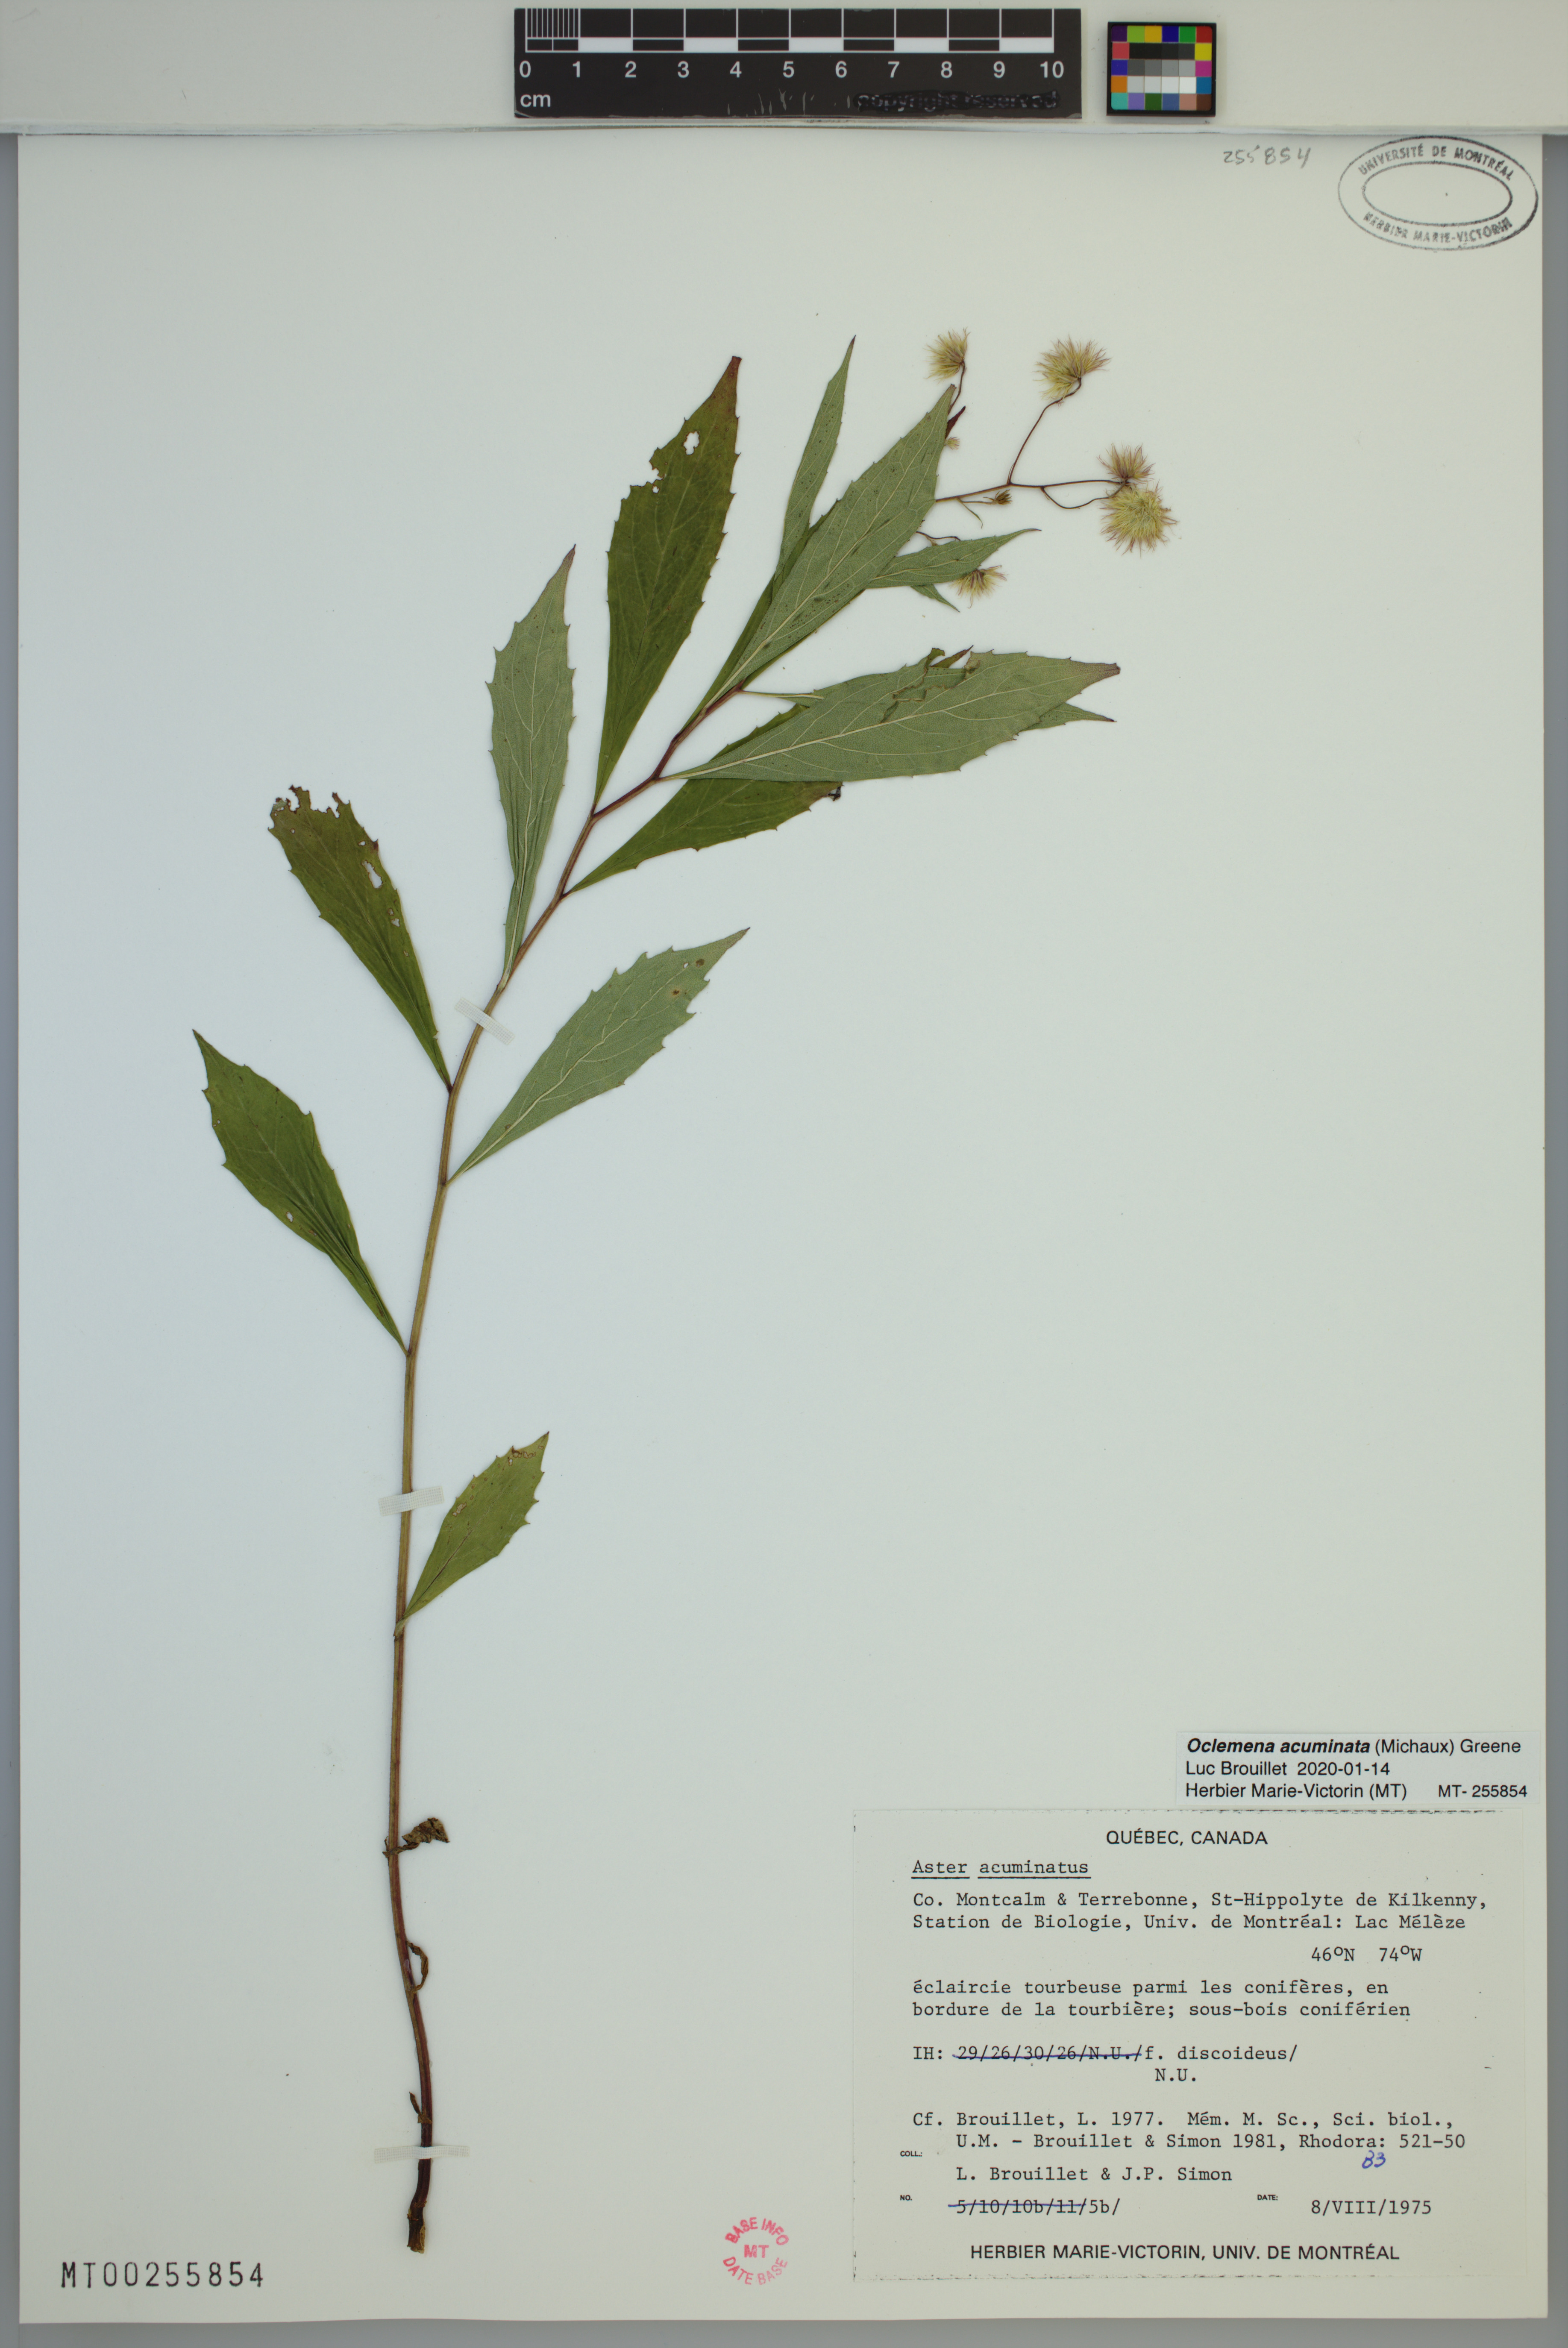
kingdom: Plantae
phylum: Tracheophyta
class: Magnoliopsida
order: Asterales
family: Asteraceae
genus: Oclemena
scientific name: Oclemena acuminata
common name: Mountain aster
